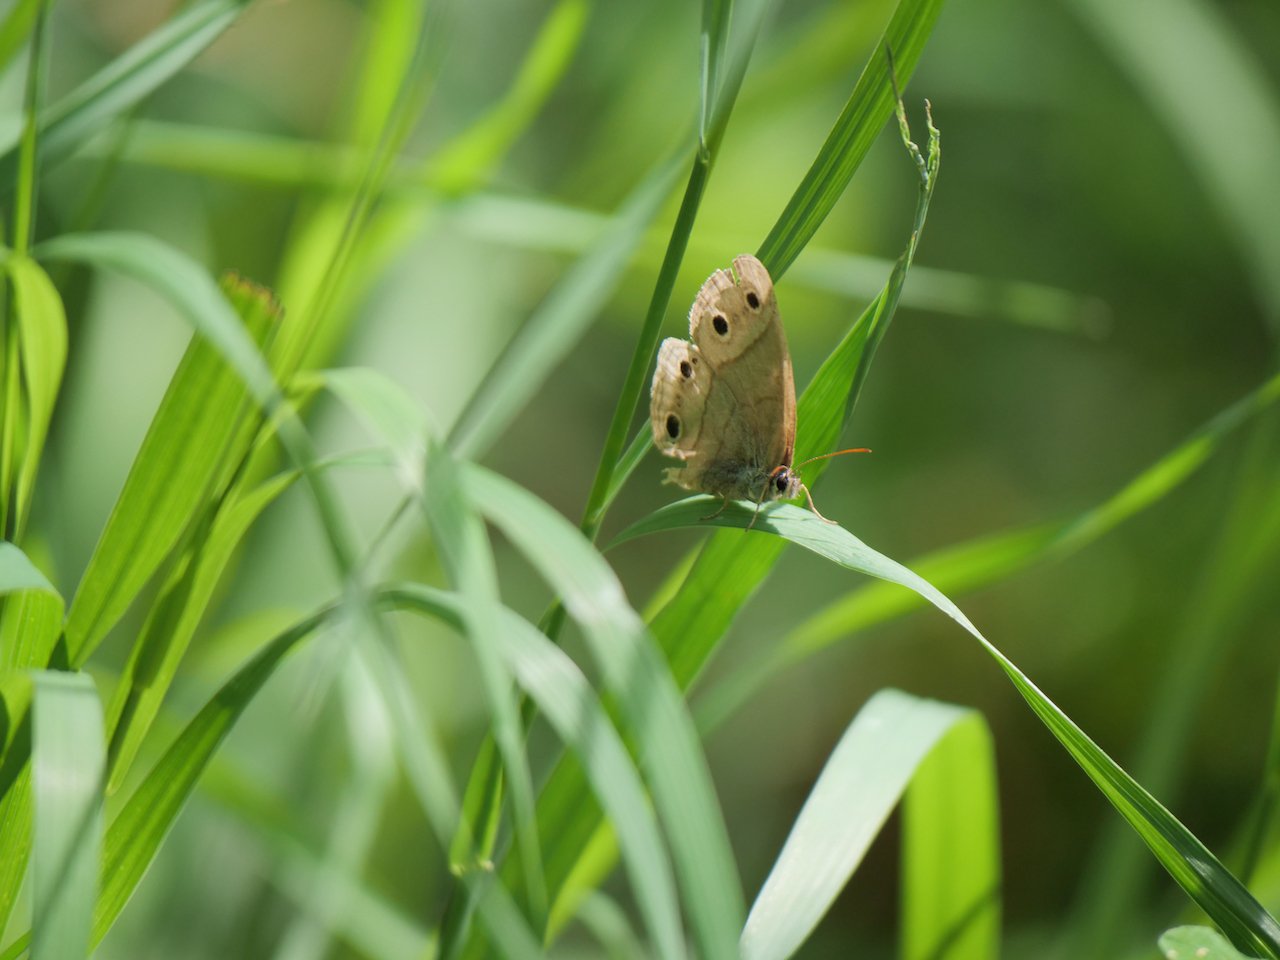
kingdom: Animalia
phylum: Arthropoda
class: Insecta
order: Lepidoptera
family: Nymphalidae
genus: Euptychia
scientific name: Euptychia cymela
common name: Little Wood Satyr
